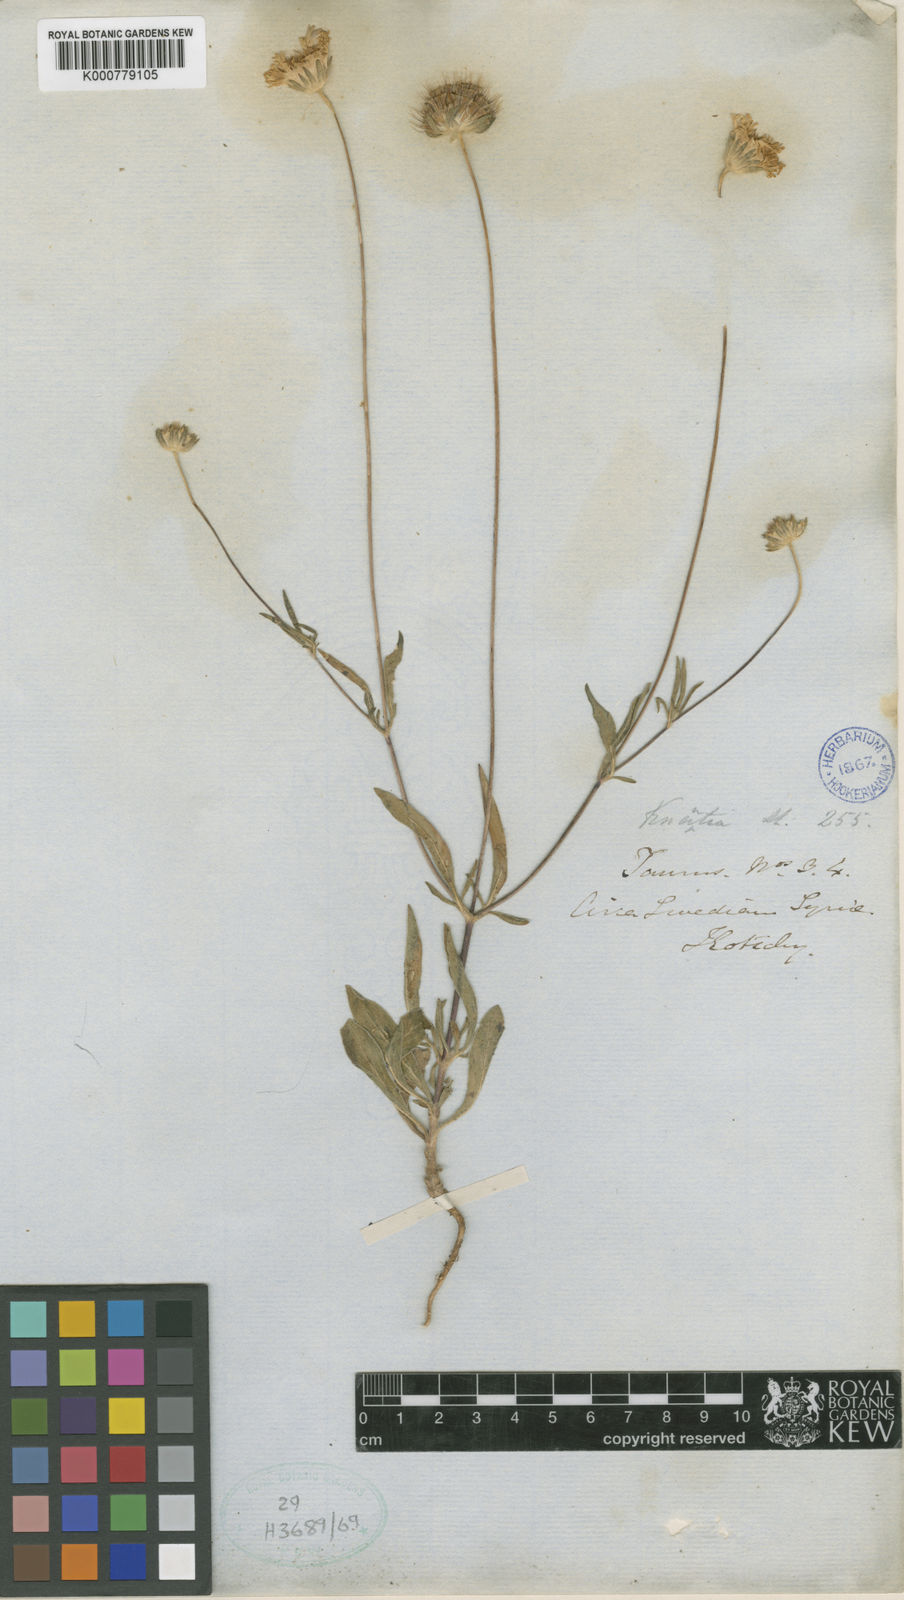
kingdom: Plantae
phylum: Tracheophyta
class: Magnoliopsida
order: Dipsacales
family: Caprifoliaceae
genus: Lomelosia
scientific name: Lomelosia palaestina
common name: Balkan pincushions
